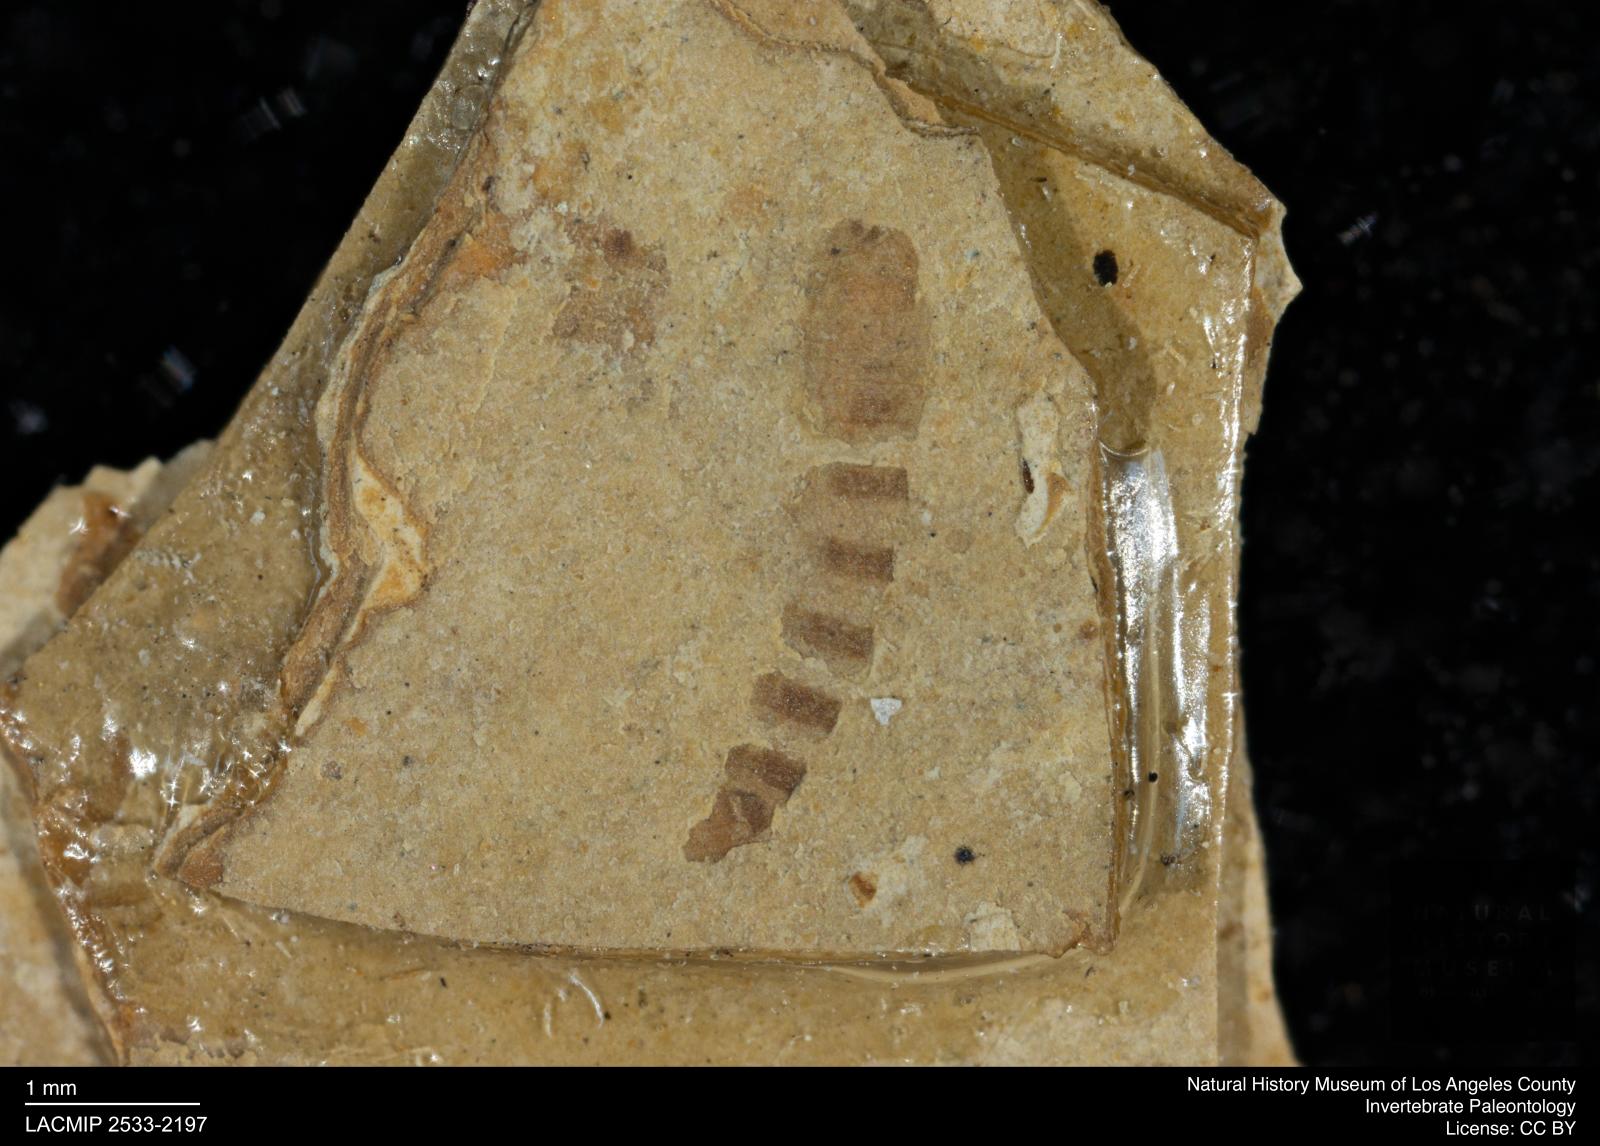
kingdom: Animalia
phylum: Arthropoda
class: Insecta
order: Diptera
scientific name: Diptera
